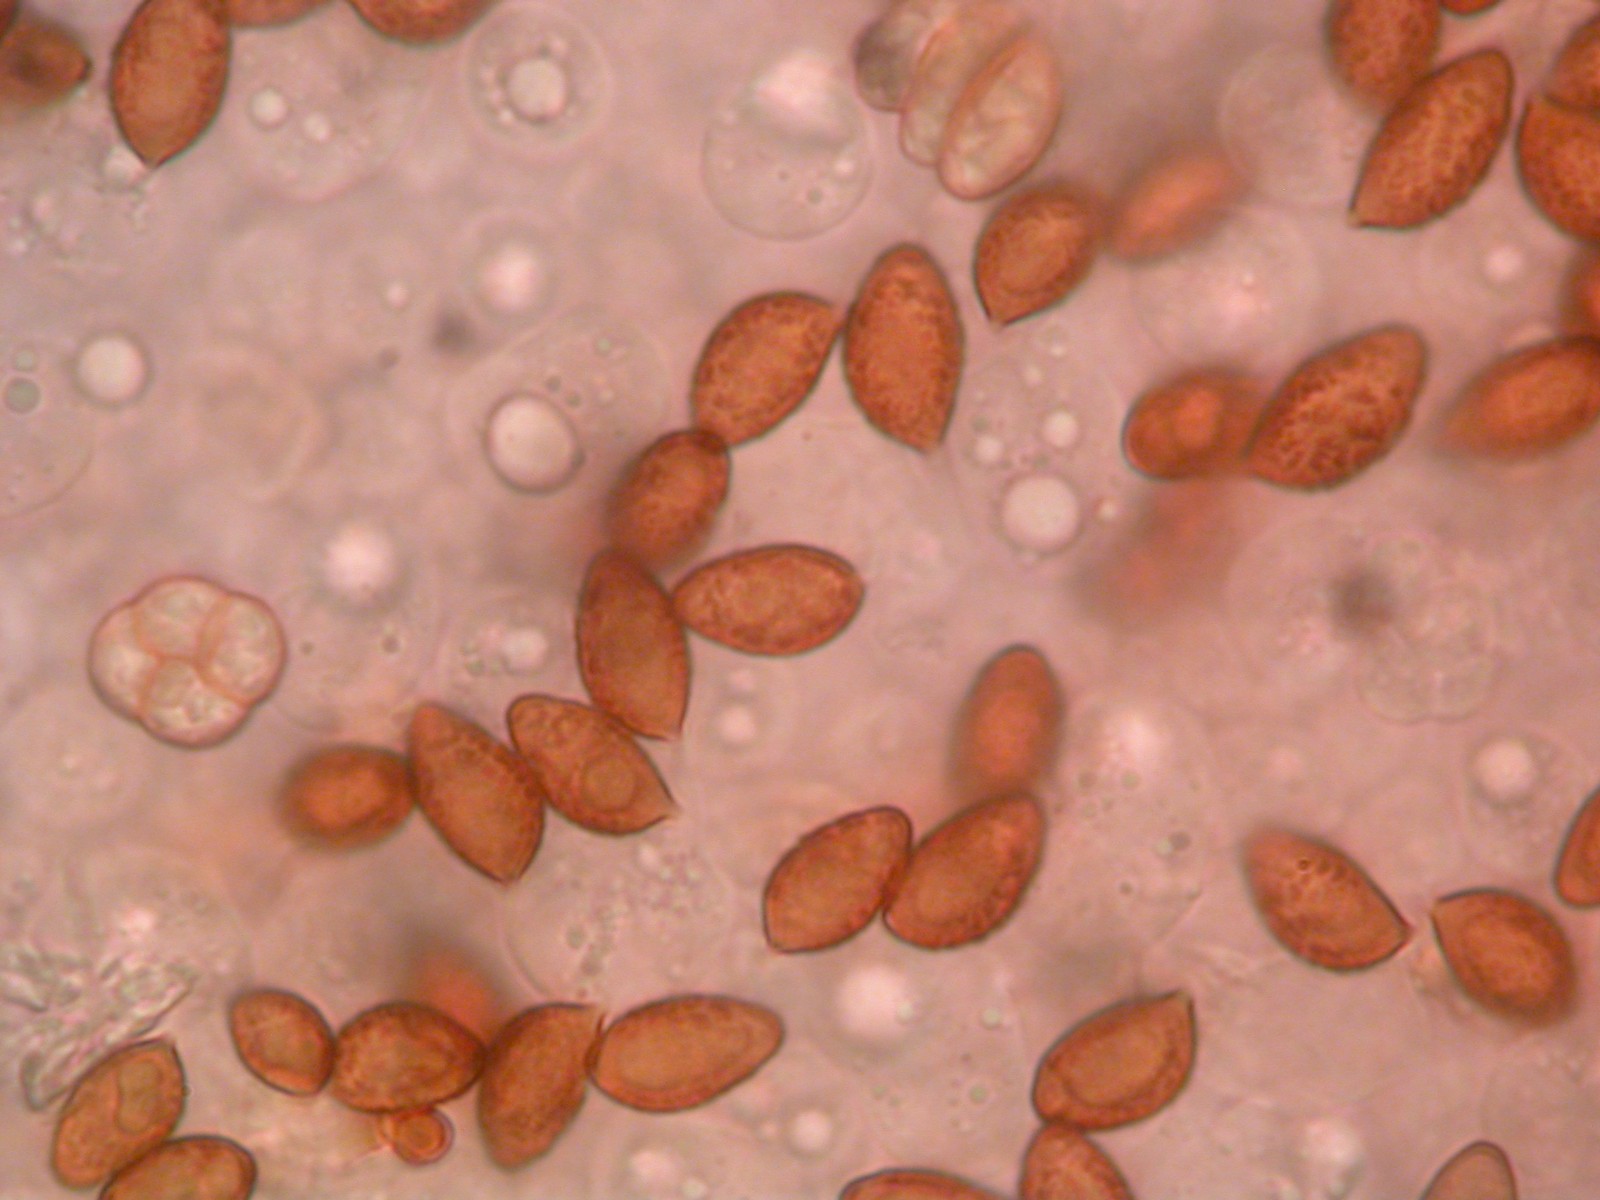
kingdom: Fungi
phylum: Basidiomycota
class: Agaricomycetes
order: Agaricales
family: Cortinariaceae
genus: Phlegmacium
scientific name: Phlegmacium
